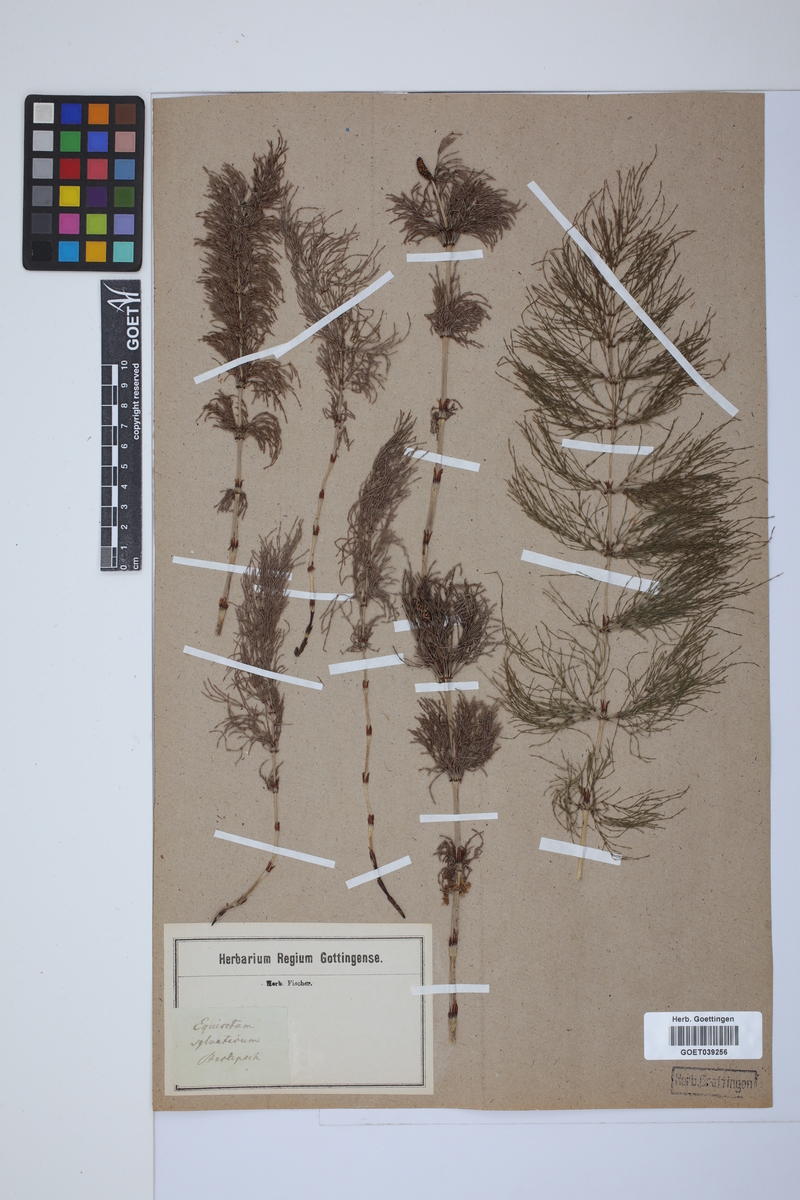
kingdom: Plantae
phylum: Tracheophyta
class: Polypodiopsida
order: Equisetales
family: Equisetaceae
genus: Equisetum
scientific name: Equisetum sylvaticum
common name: Wood horsetail
